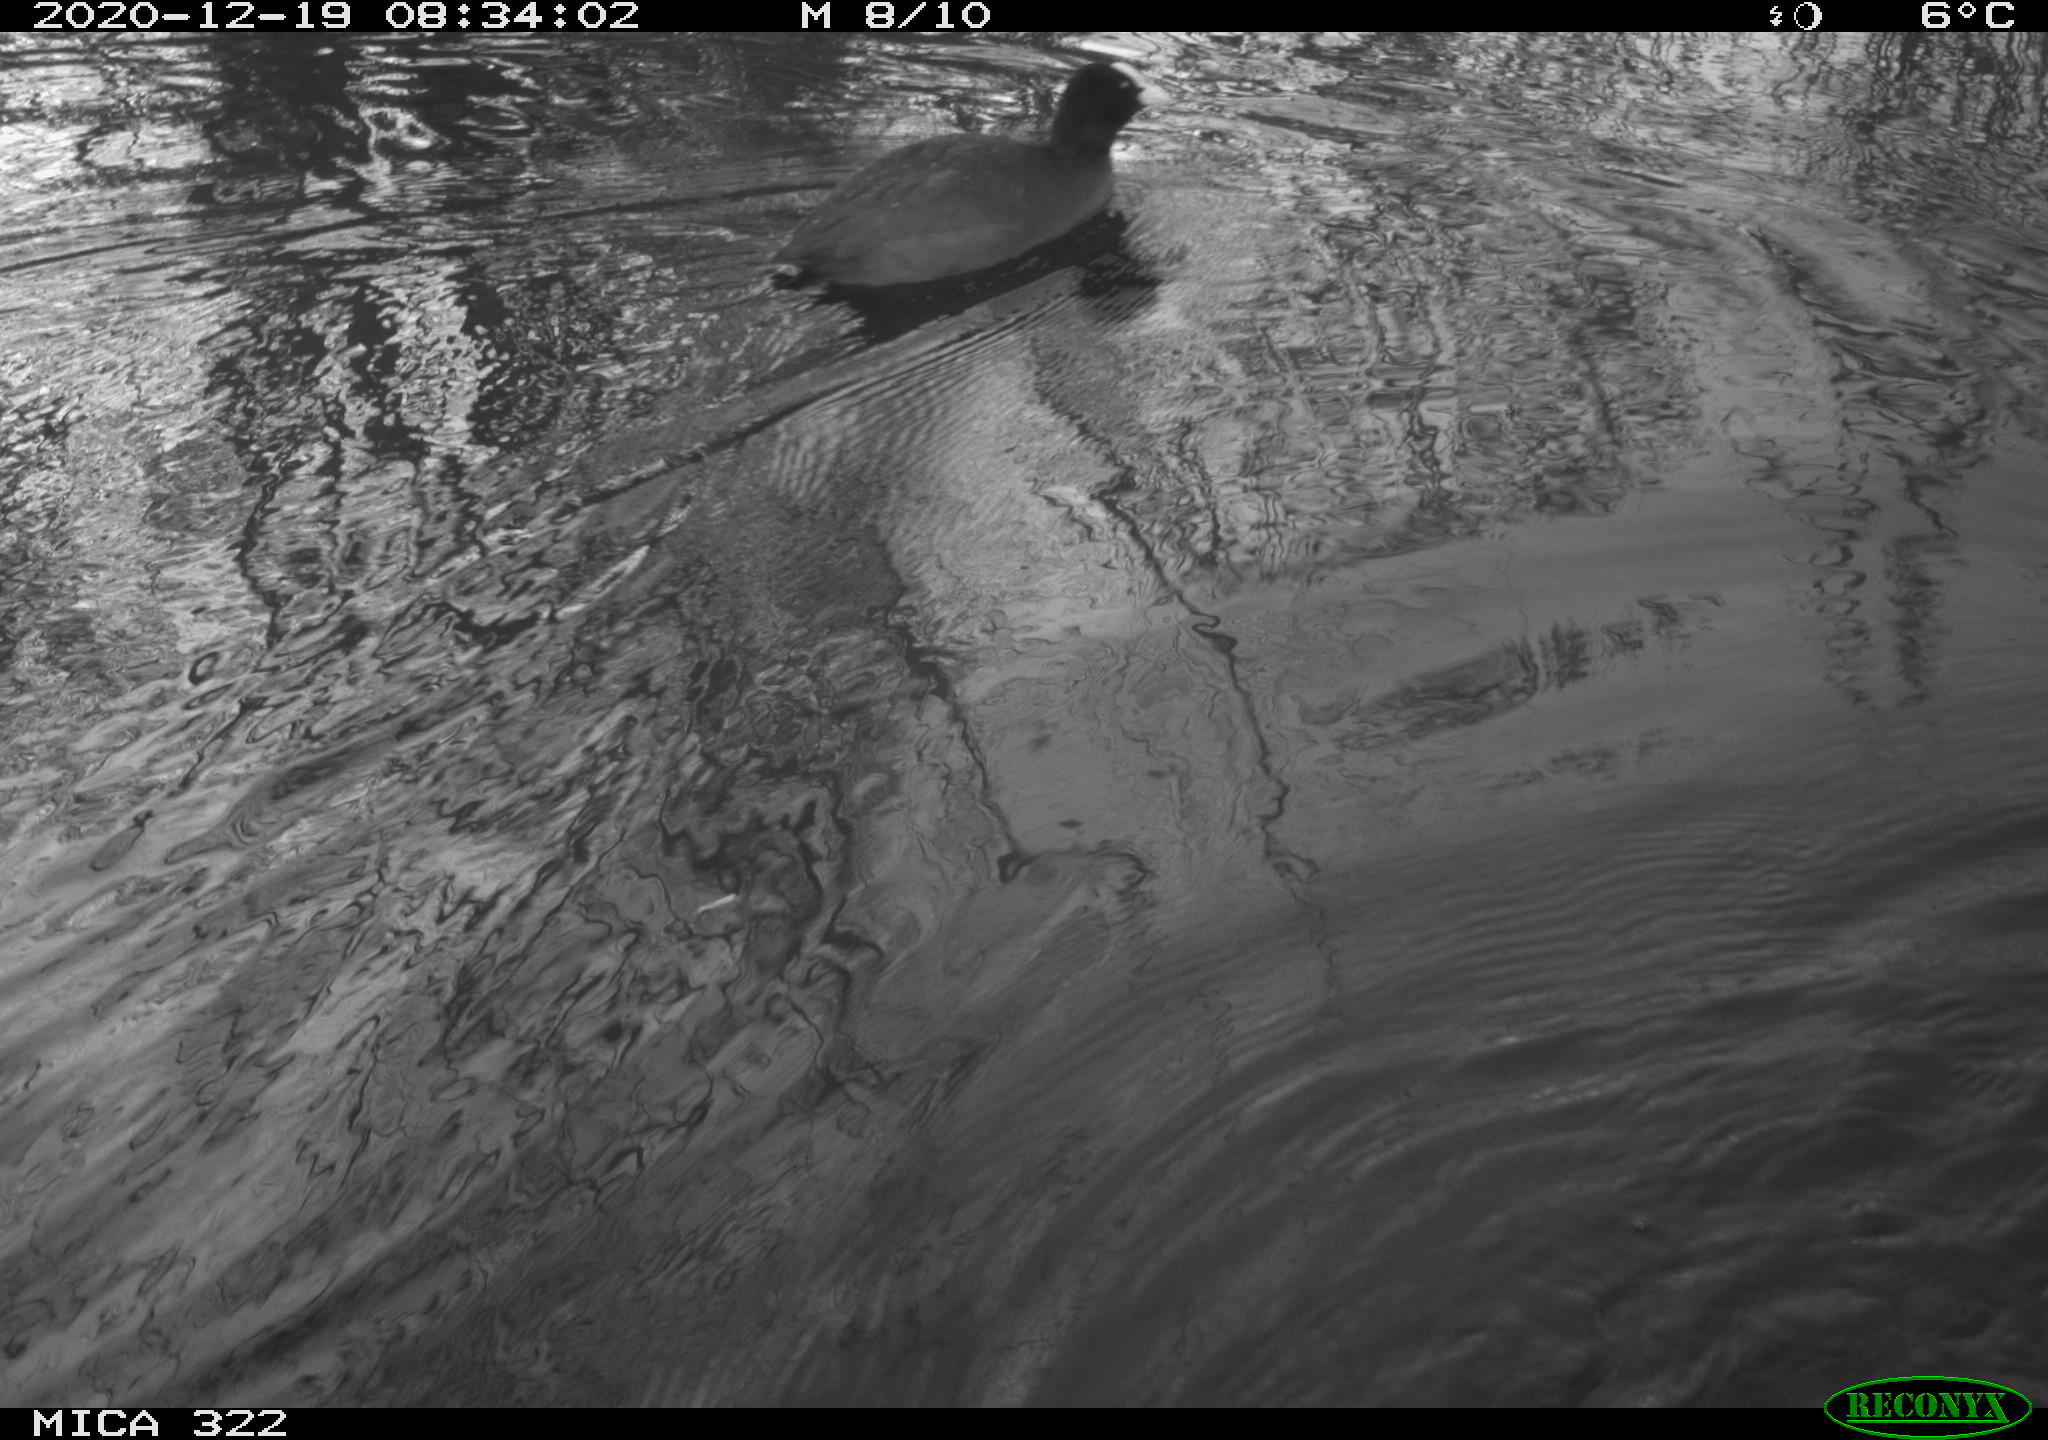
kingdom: Animalia
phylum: Chordata
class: Aves
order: Gruiformes
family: Rallidae
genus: Fulica
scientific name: Fulica atra
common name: Eurasian coot
